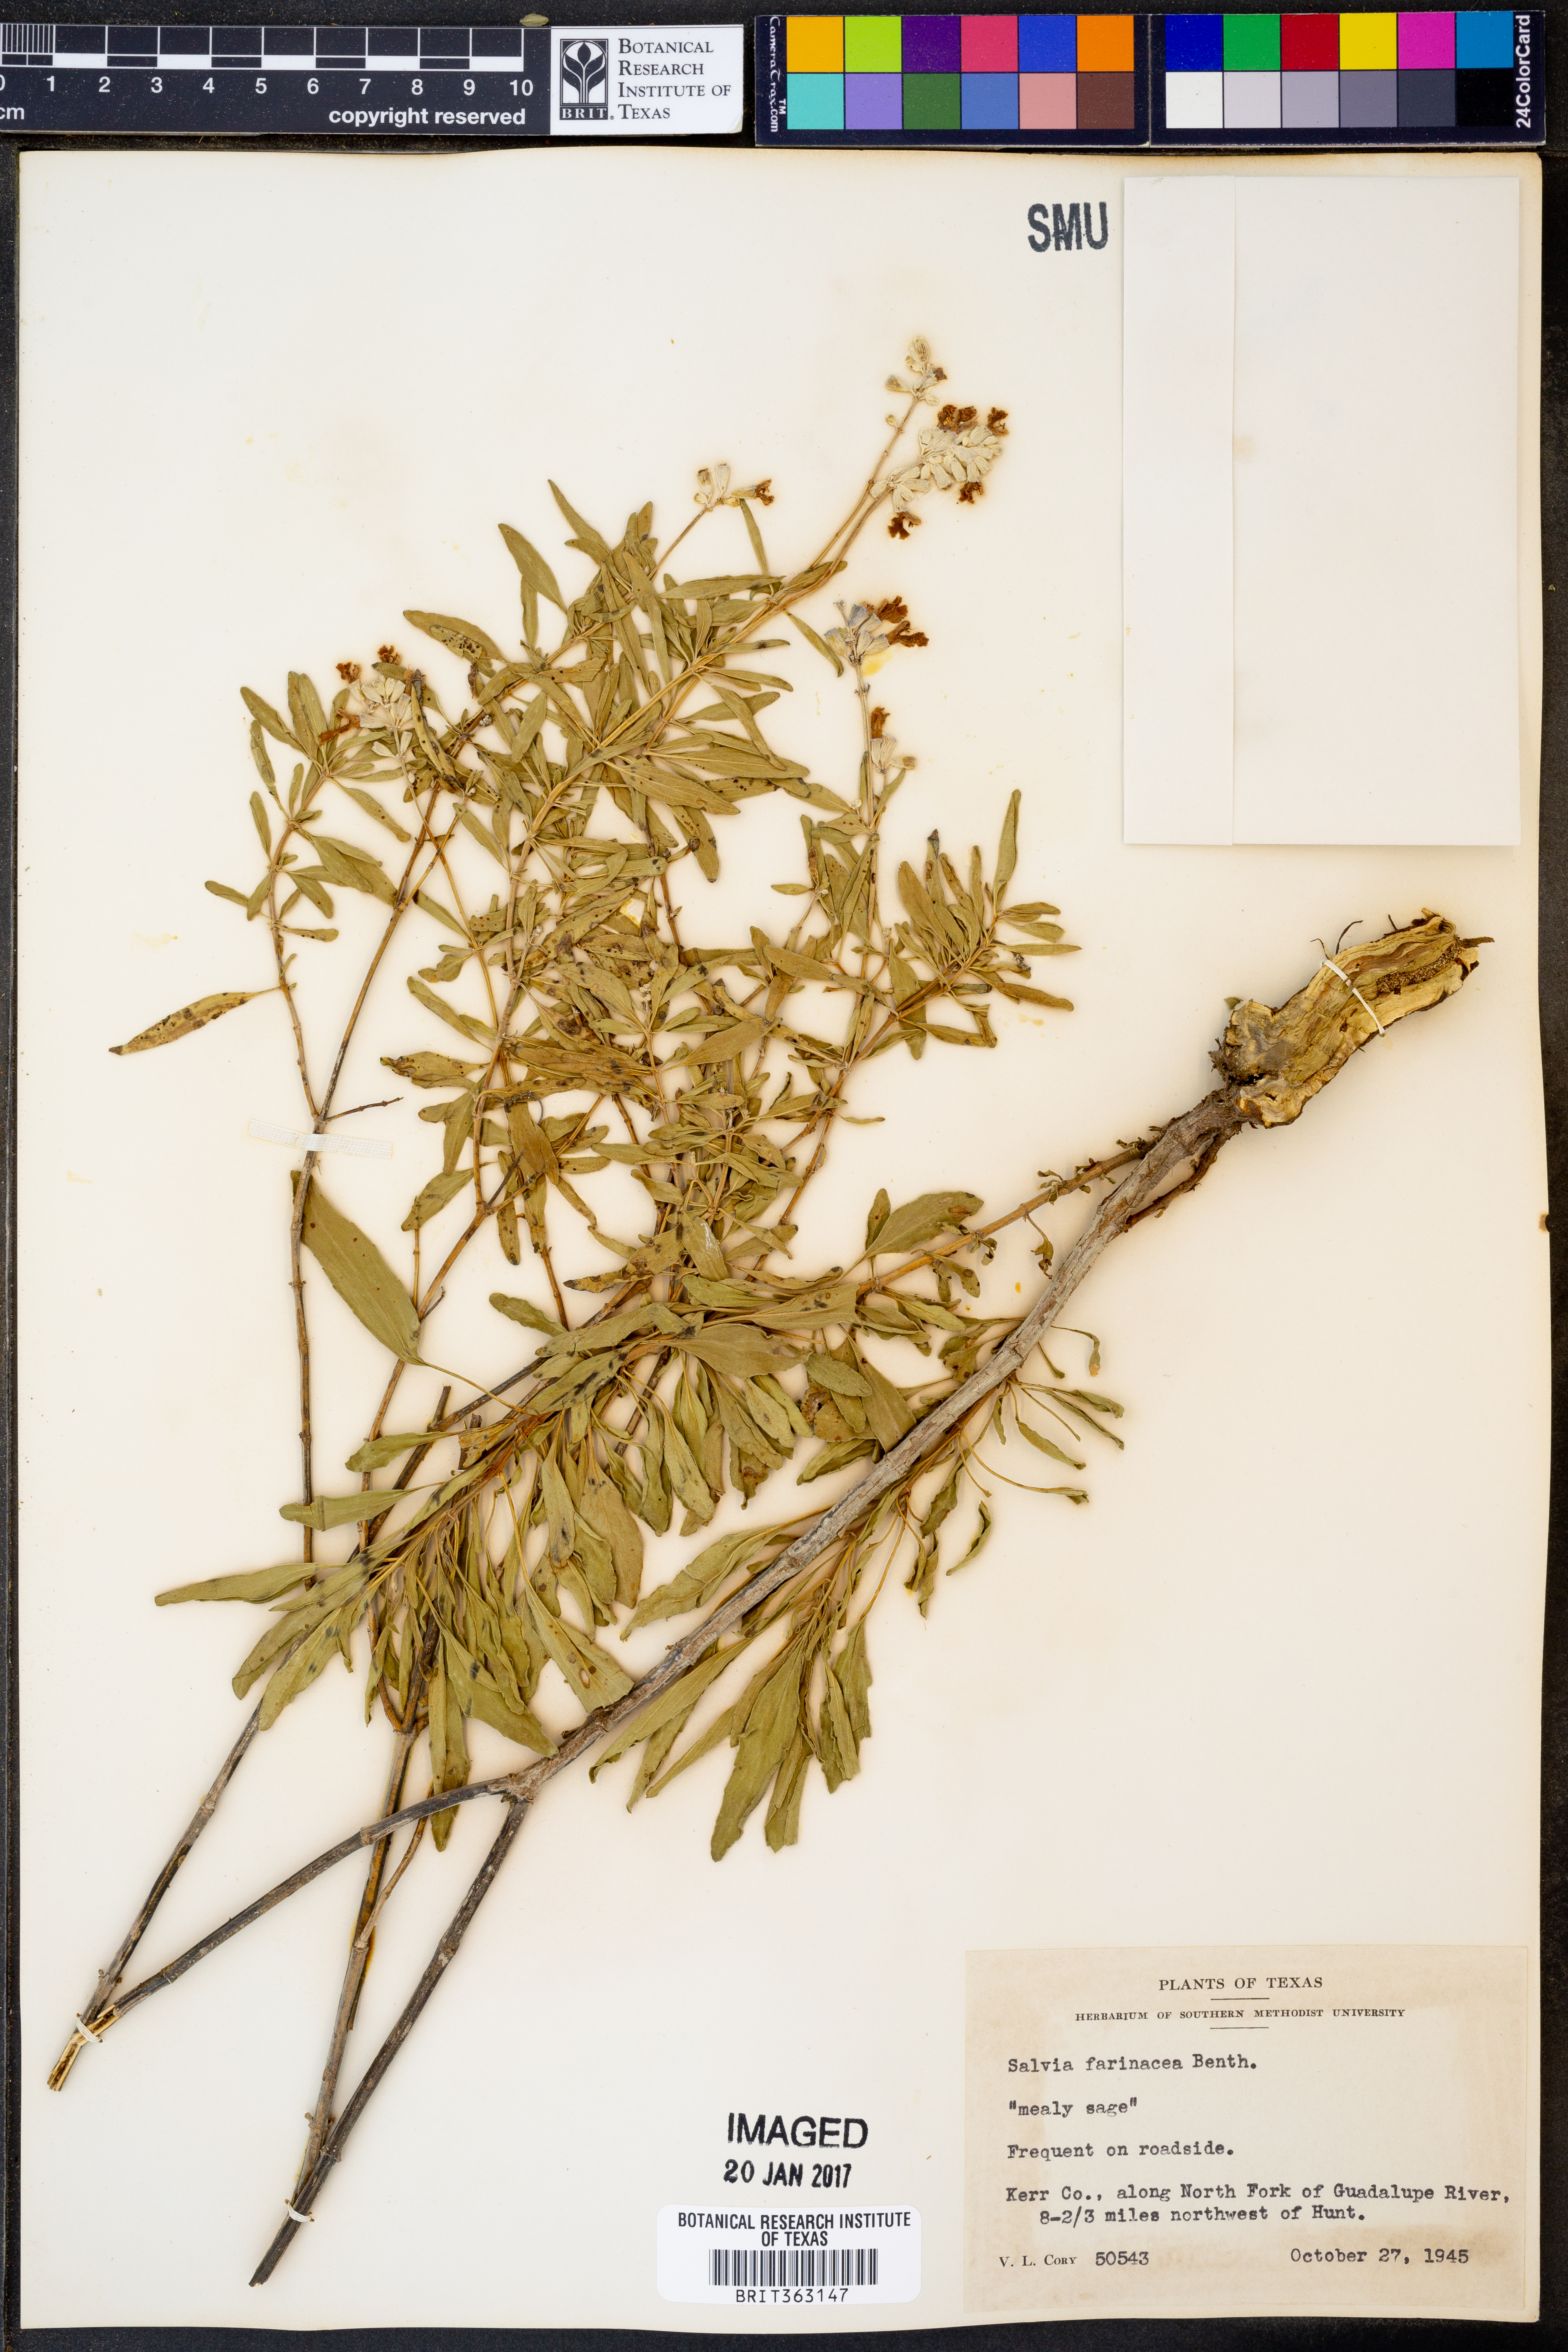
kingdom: Plantae
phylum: Tracheophyta
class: Magnoliopsida
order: Lamiales
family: Lamiaceae
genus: Salvia
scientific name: Salvia farinacea
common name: Mealy sage
